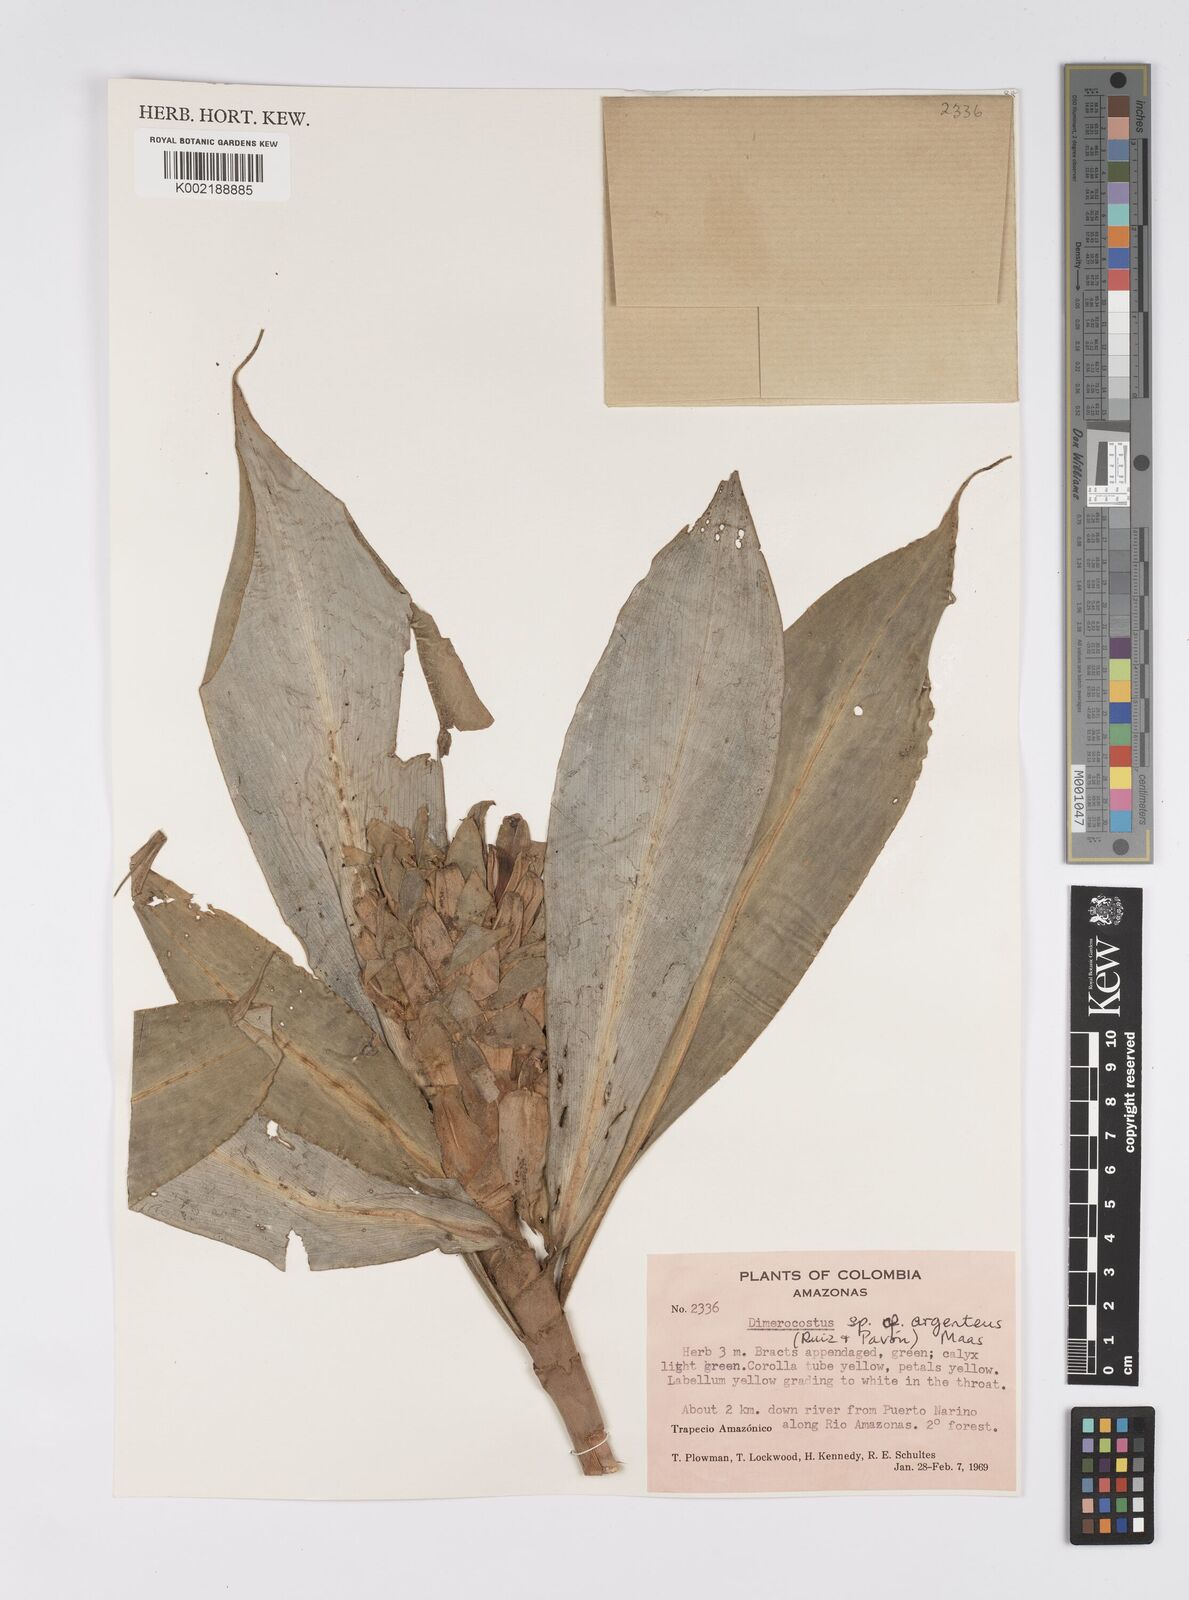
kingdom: Plantae
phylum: Tracheophyta
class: Liliopsida
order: Zingiberales
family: Costaceae
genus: Dimerocostus
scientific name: Dimerocostus argenteus
